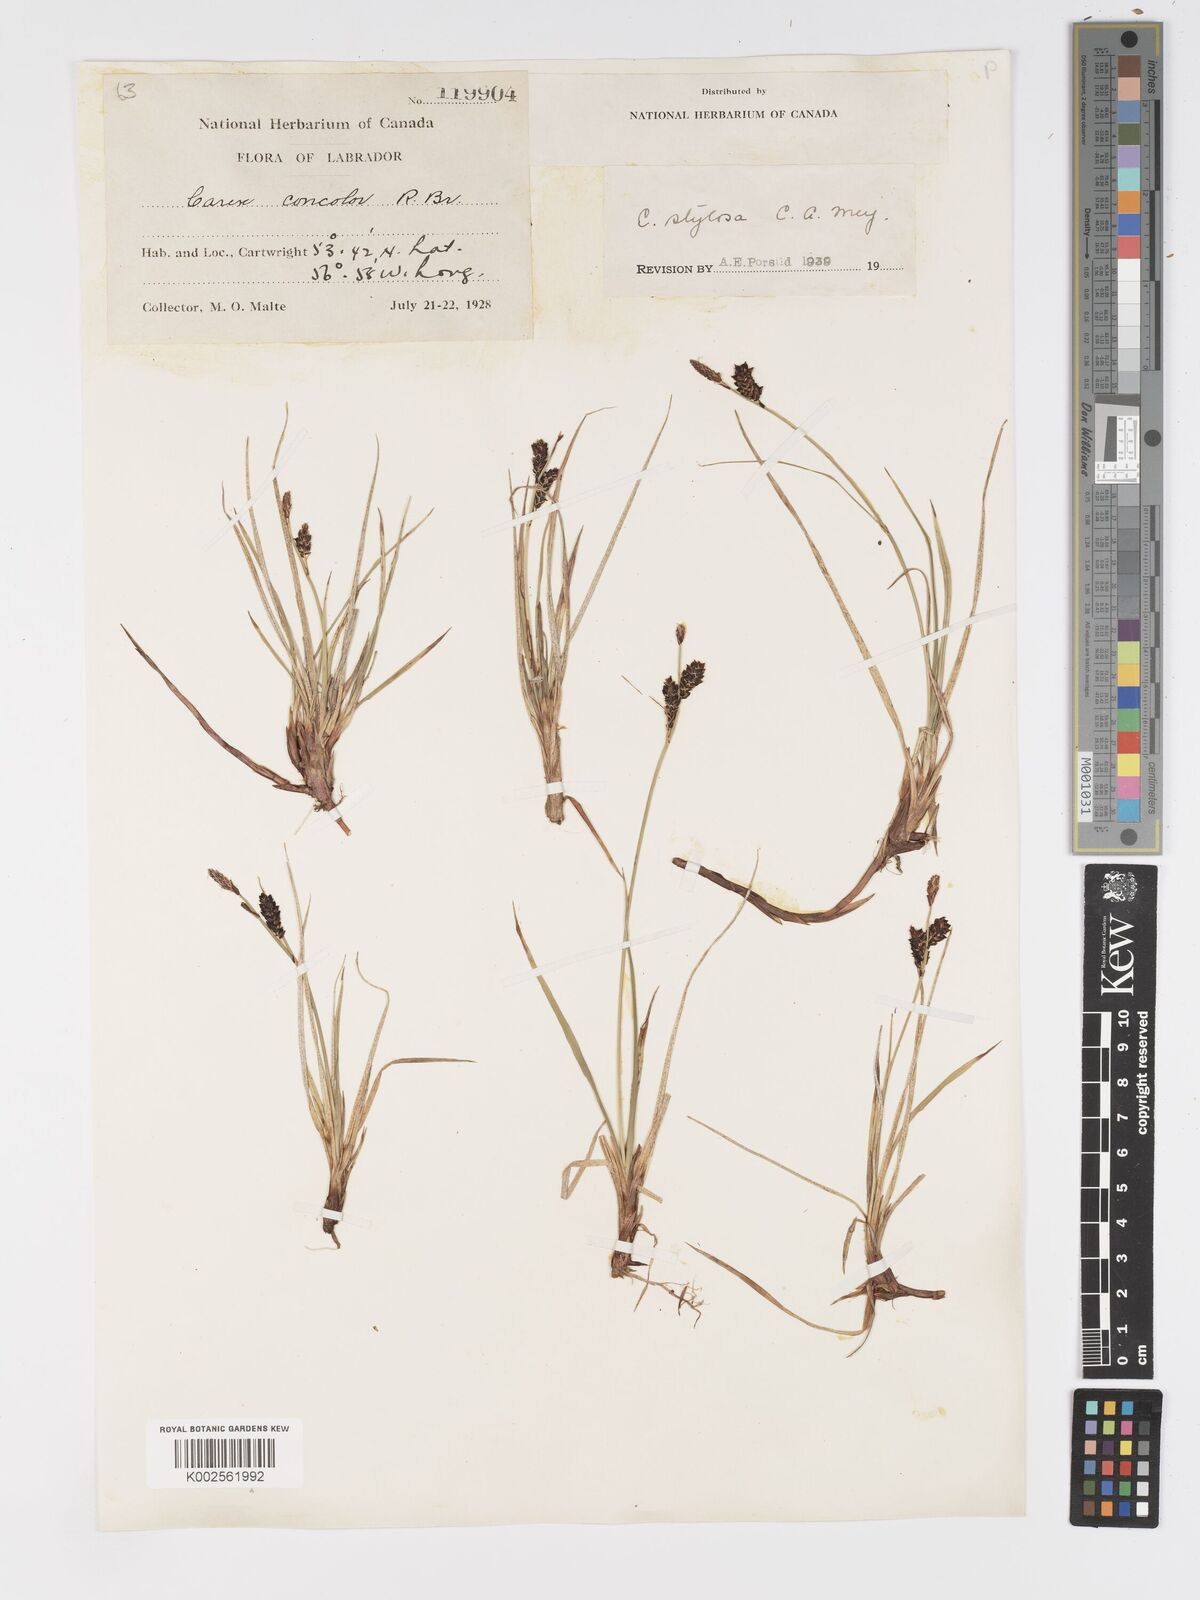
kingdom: Plantae
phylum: Tracheophyta
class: Liliopsida
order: Poales
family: Cyperaceae
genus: Carex
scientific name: Carex bigelowii
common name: Stiff sedge
